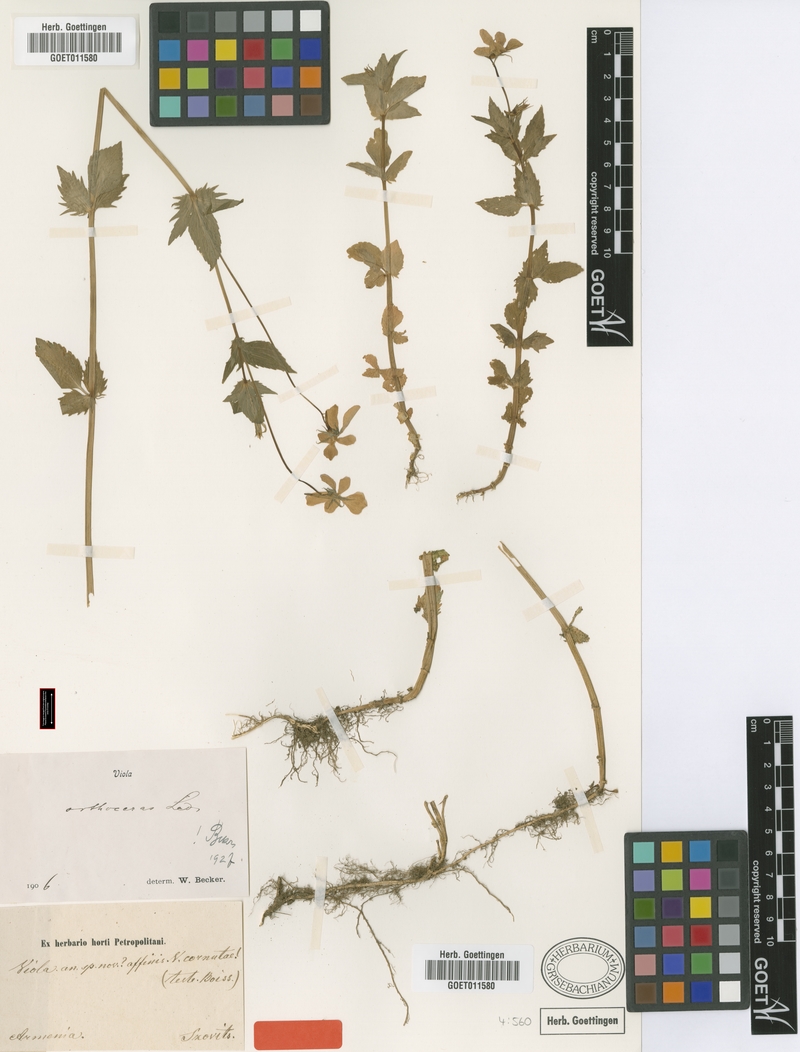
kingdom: Plantae
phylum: Tracheophyta
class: Magnoliopsida
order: Malpighiales
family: Violaceae
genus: Viola
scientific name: Viola orthoceras
